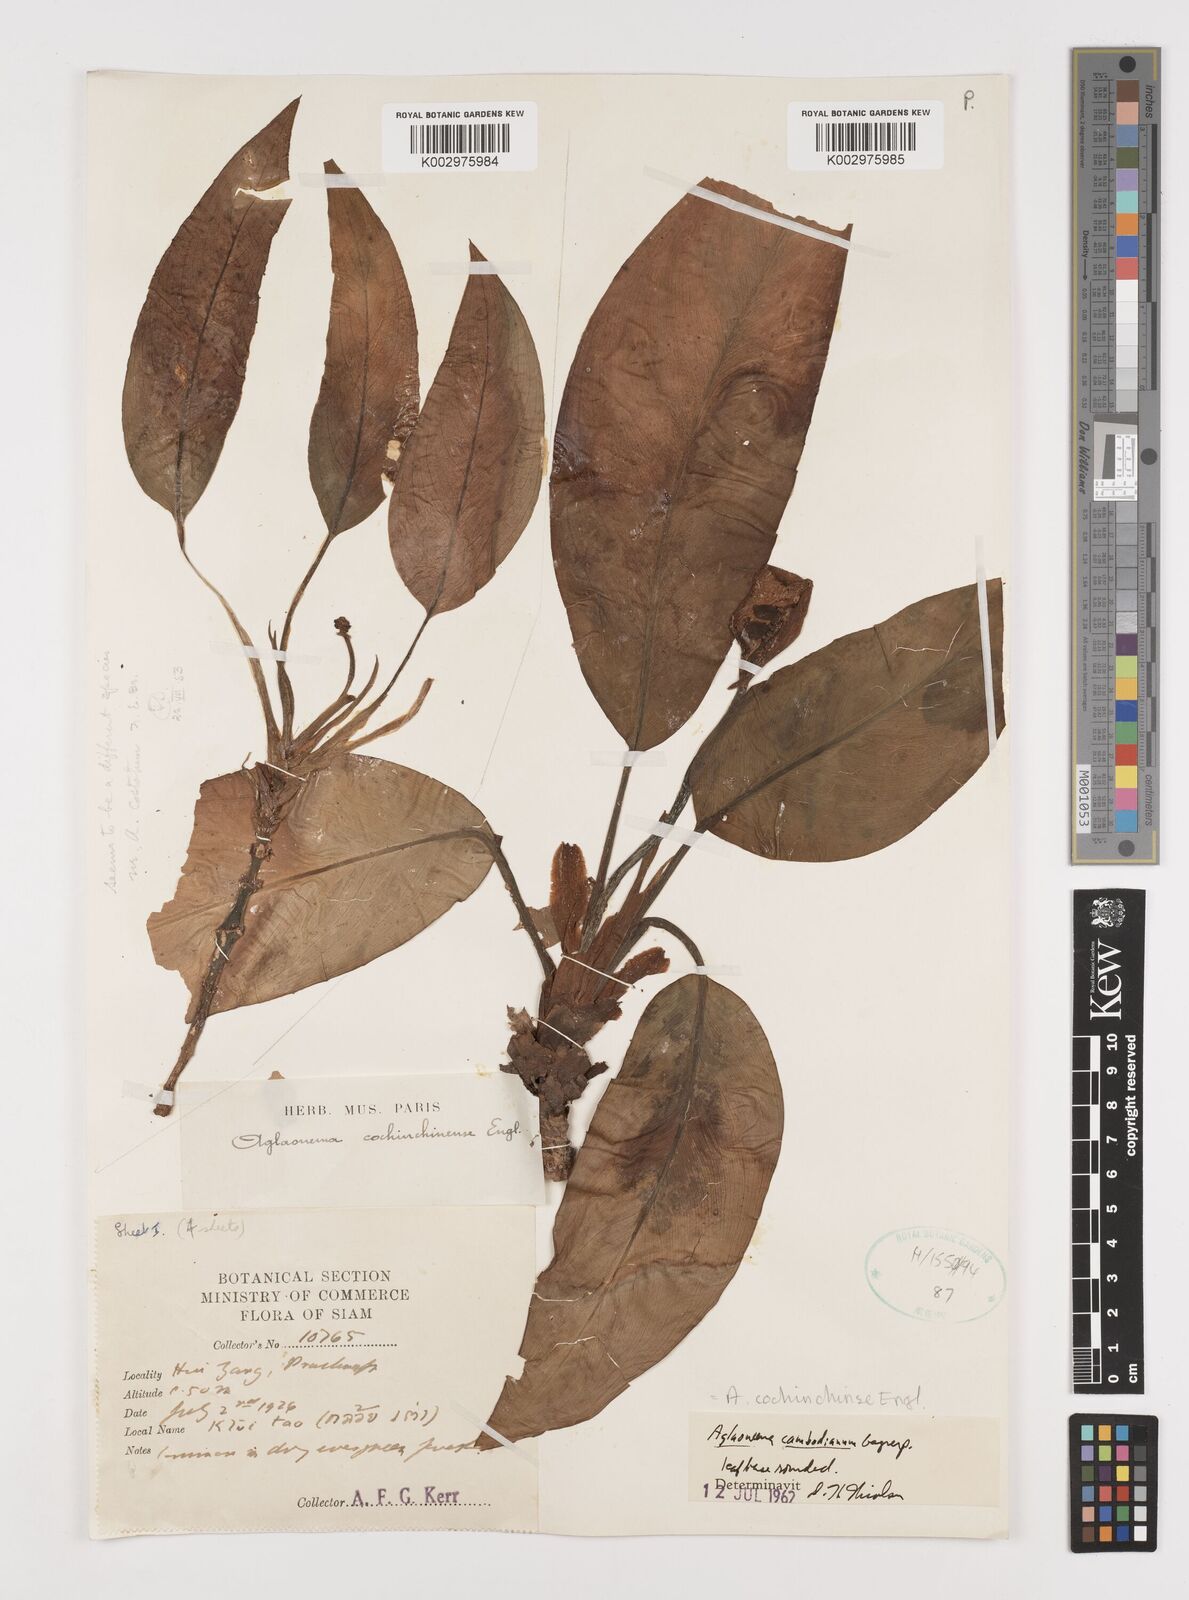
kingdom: Plantae
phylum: Tracheophyta
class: Liliopsida
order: Alismatales
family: Araceae
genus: Aglaonema
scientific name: Aglaonema cochinchinense
